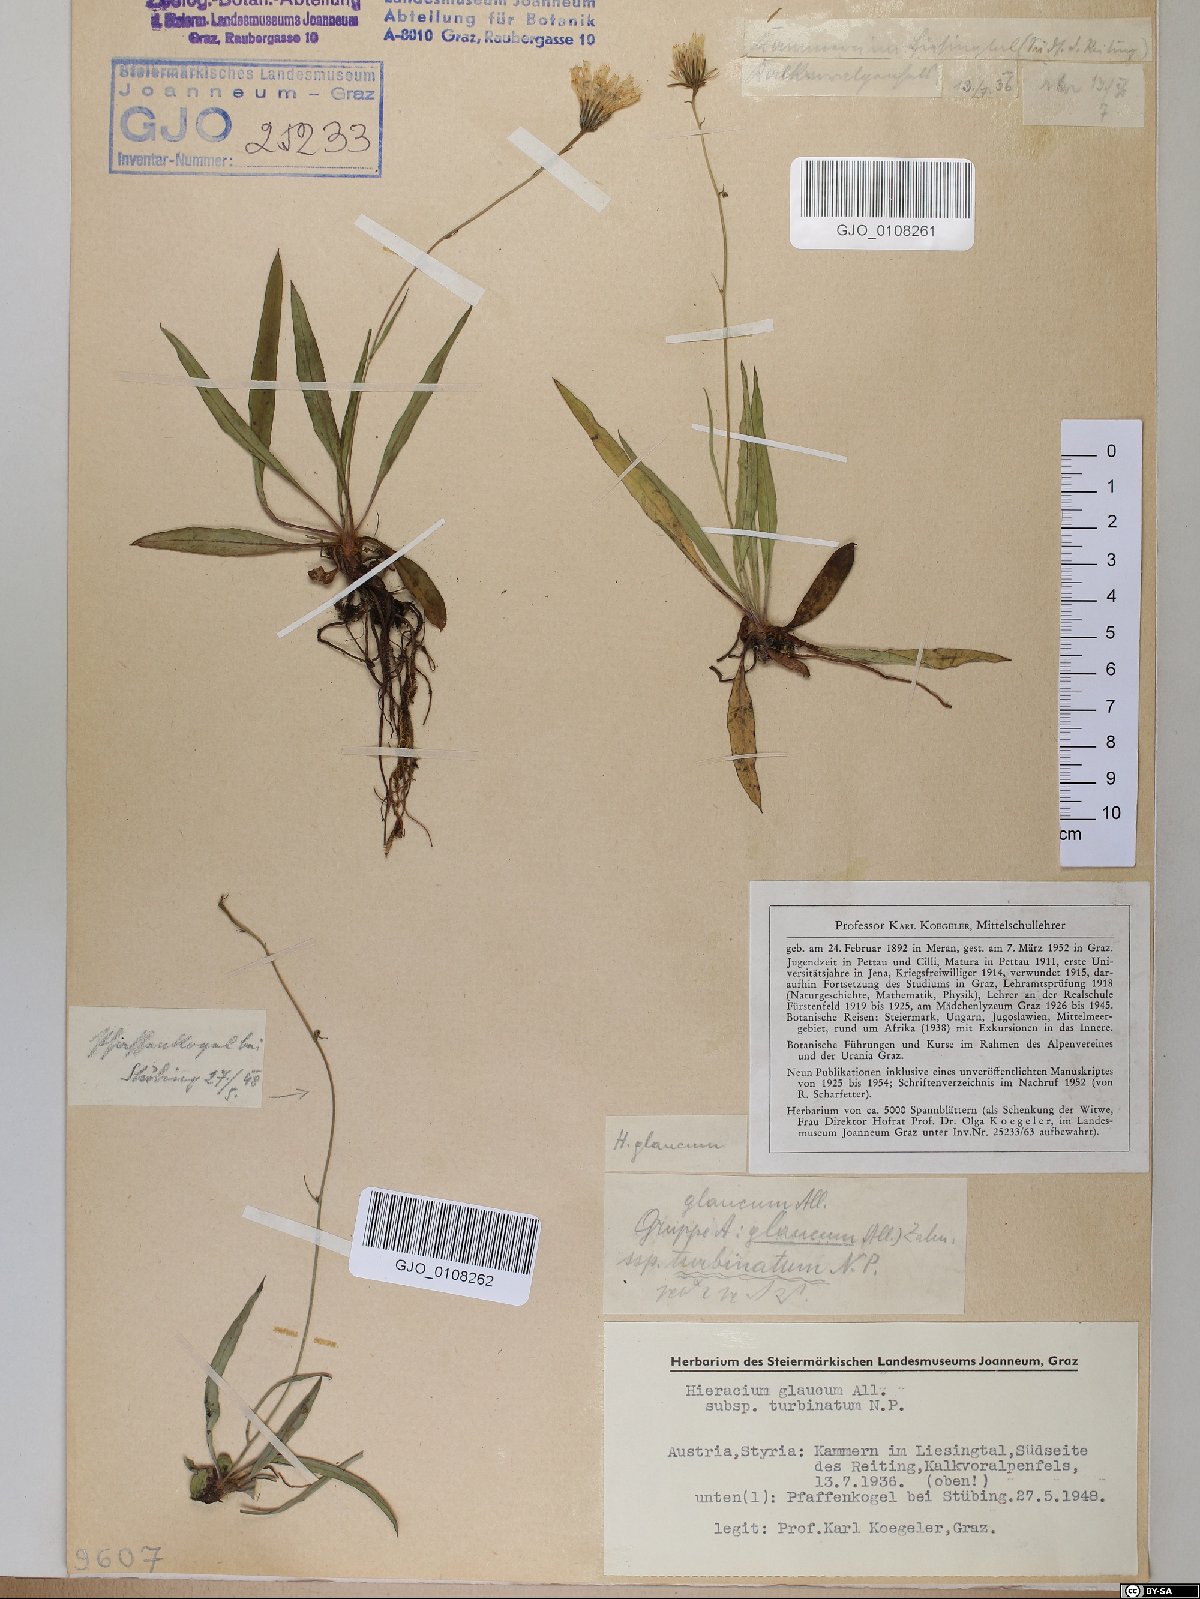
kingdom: Plantae
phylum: Tracheophyta
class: Magnoliopsida
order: Asterales
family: Asteraceae
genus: Hieracium
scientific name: Hieracium glaucum
